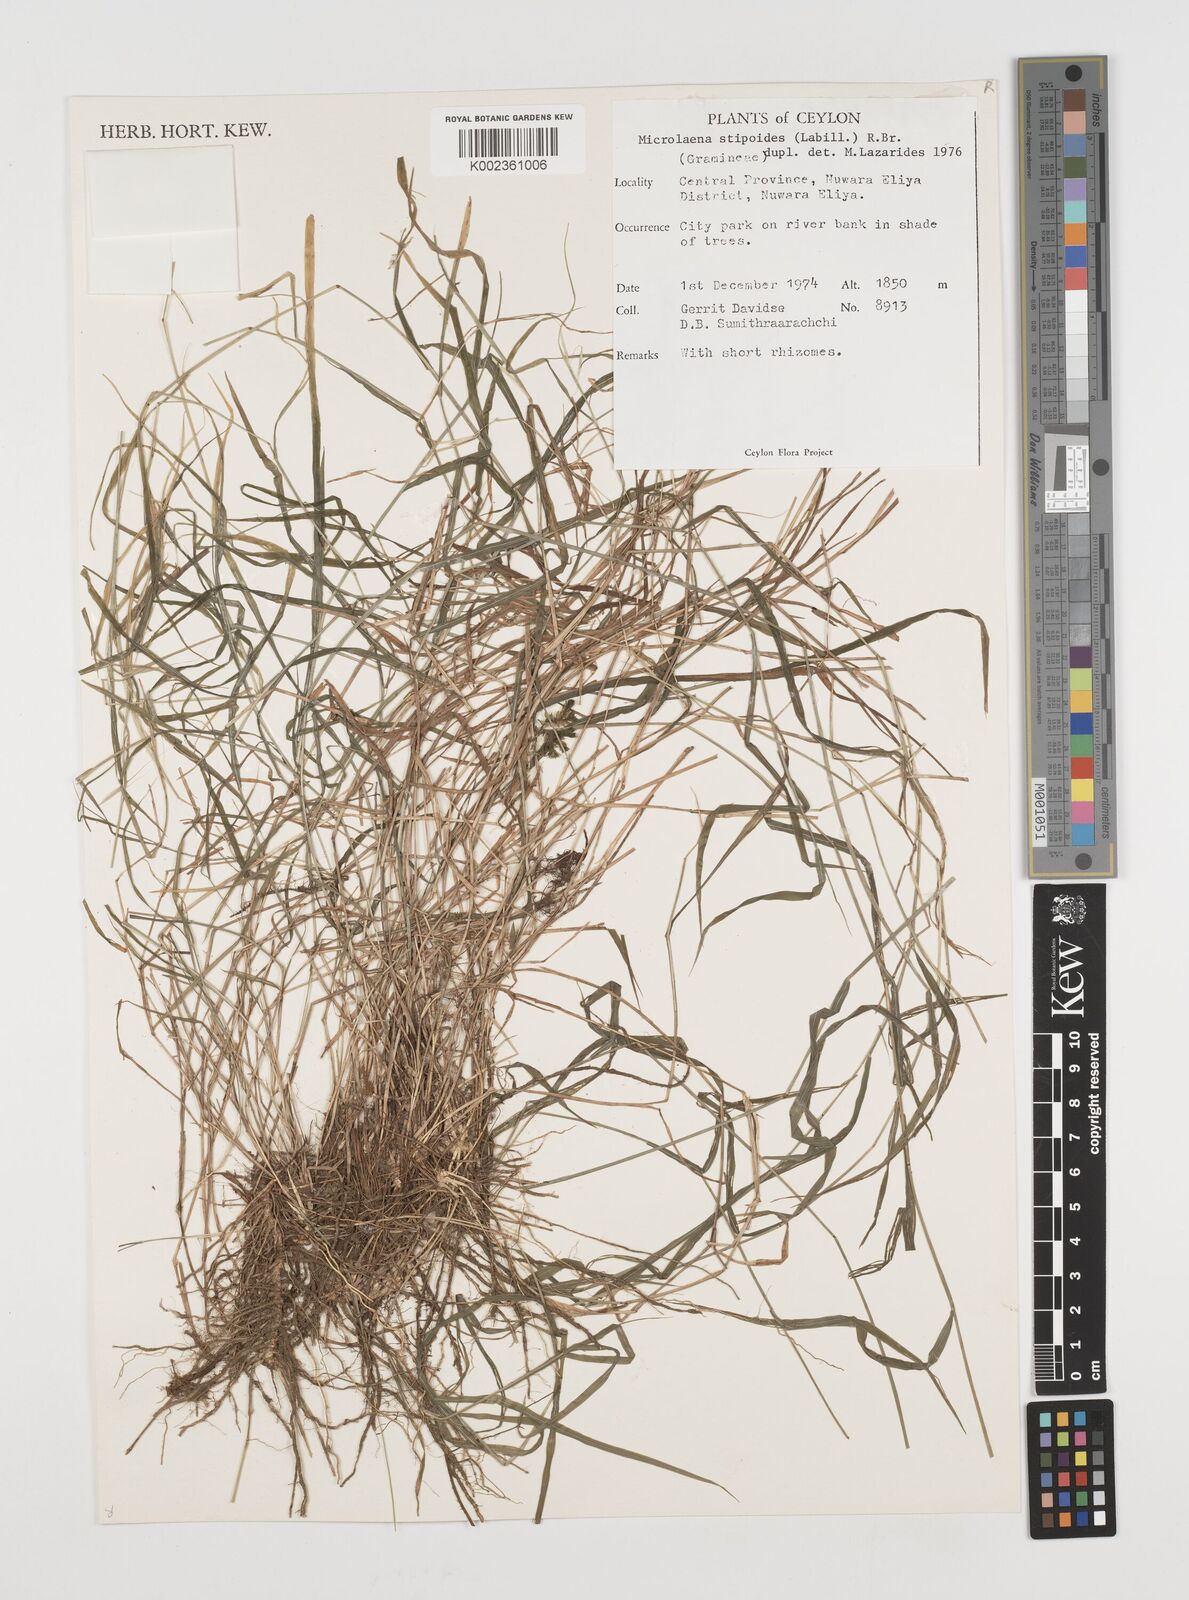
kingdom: Plantae
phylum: Tracheophyta
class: Liliopsida
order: Poales
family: Poaceae
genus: Microlaena
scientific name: Microlaena stipoides
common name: Meadow ricegrass
